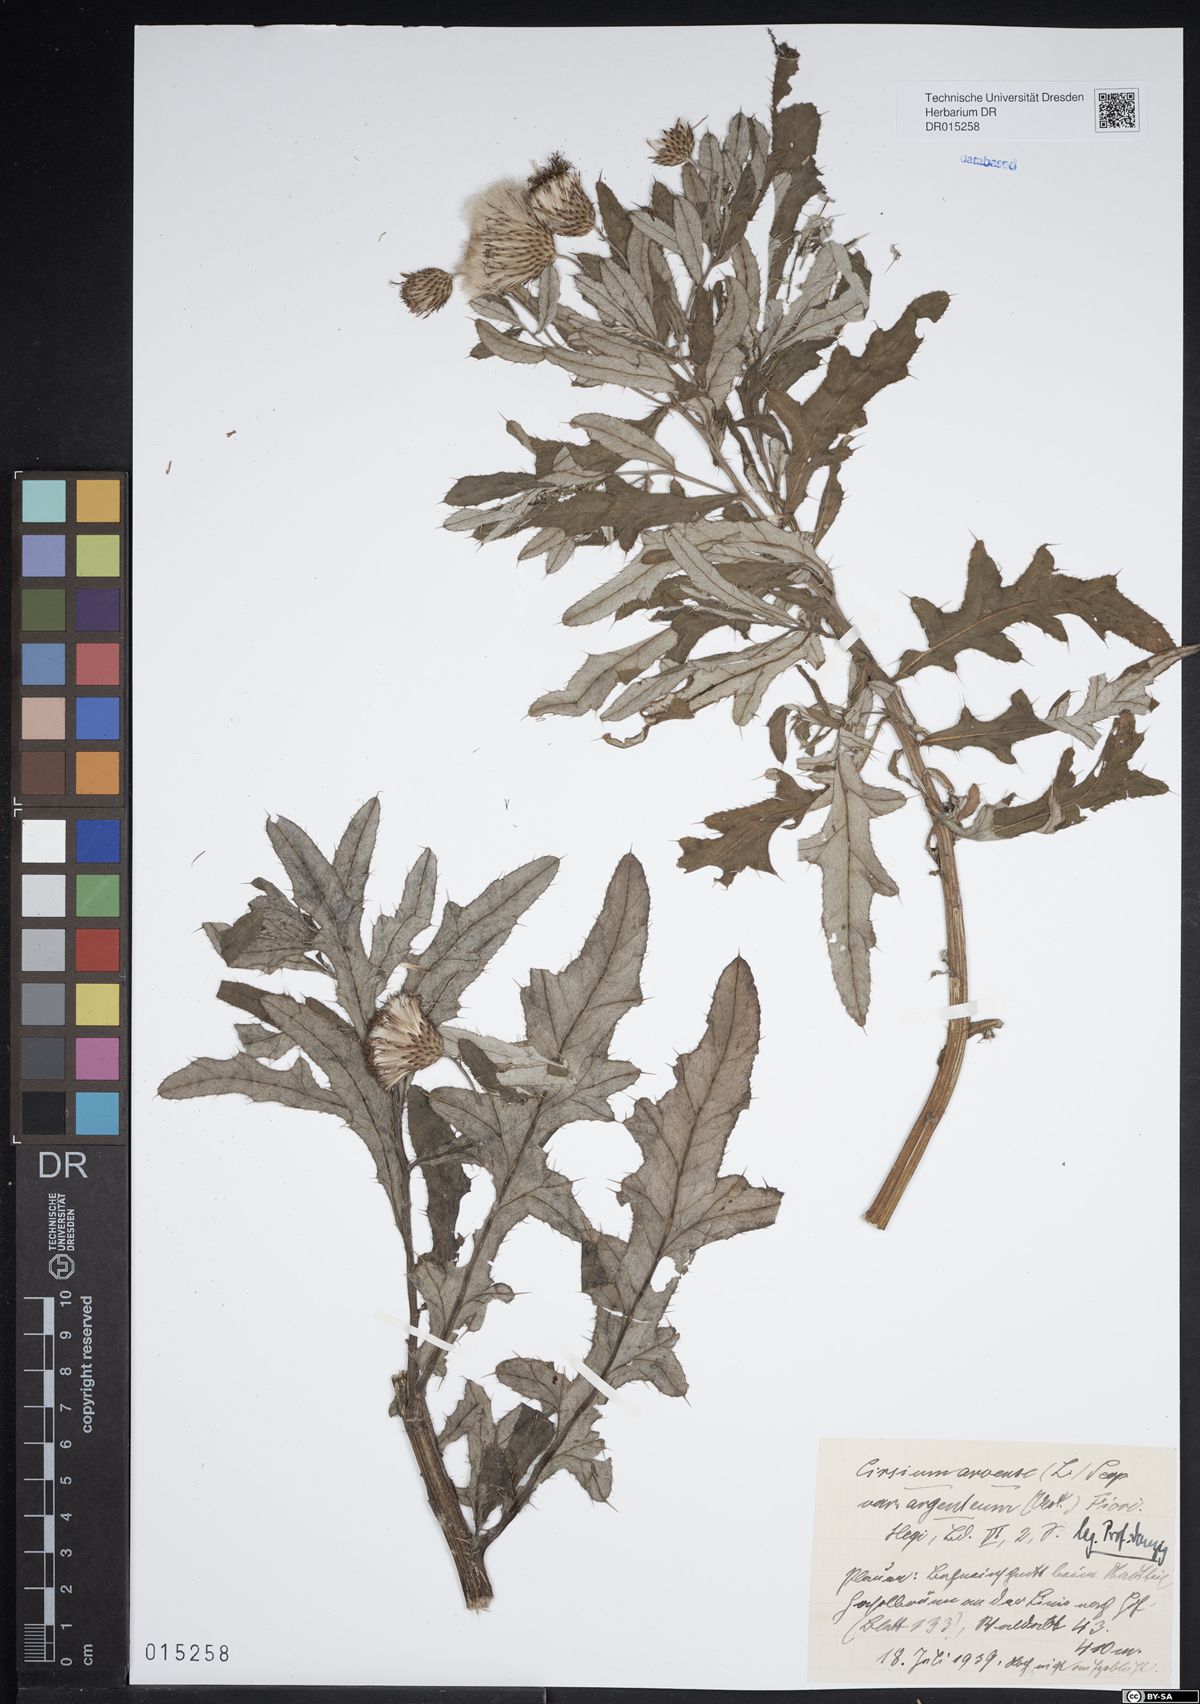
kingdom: Plantae
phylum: Tracheophyta
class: Magnoliopsida
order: Asterales
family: Asteraceae
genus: Cirsium
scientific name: Cirsium arvense
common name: Creeping thistle
